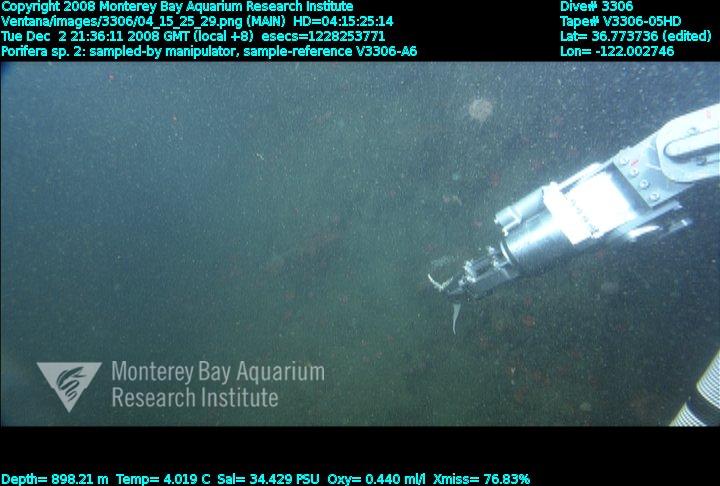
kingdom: Animalia
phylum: Porifera
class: Demospongiae
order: Poecilosclerida
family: Cladorhizidae
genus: Asbestopluma
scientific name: Asbestopluma
